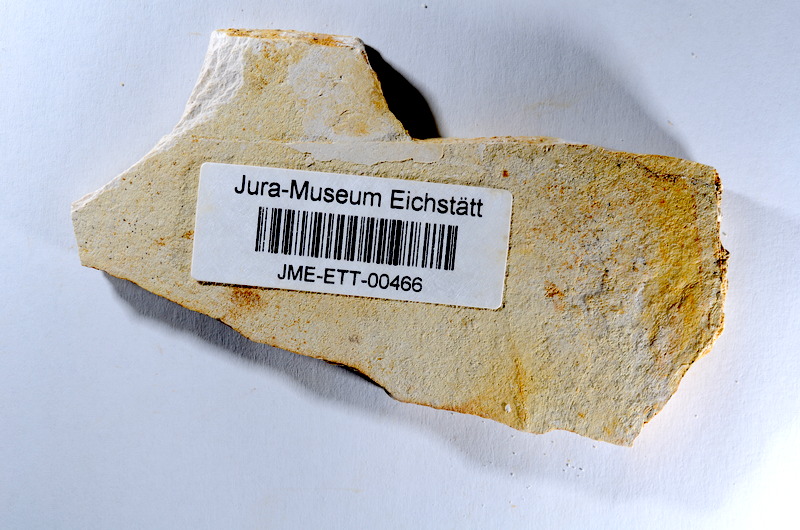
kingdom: Animalia
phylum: Chordata
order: Salmoniformes
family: Orthogonikleithridae
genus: Orthogonikleithrus
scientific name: Orthogonikleithrus hoelli
